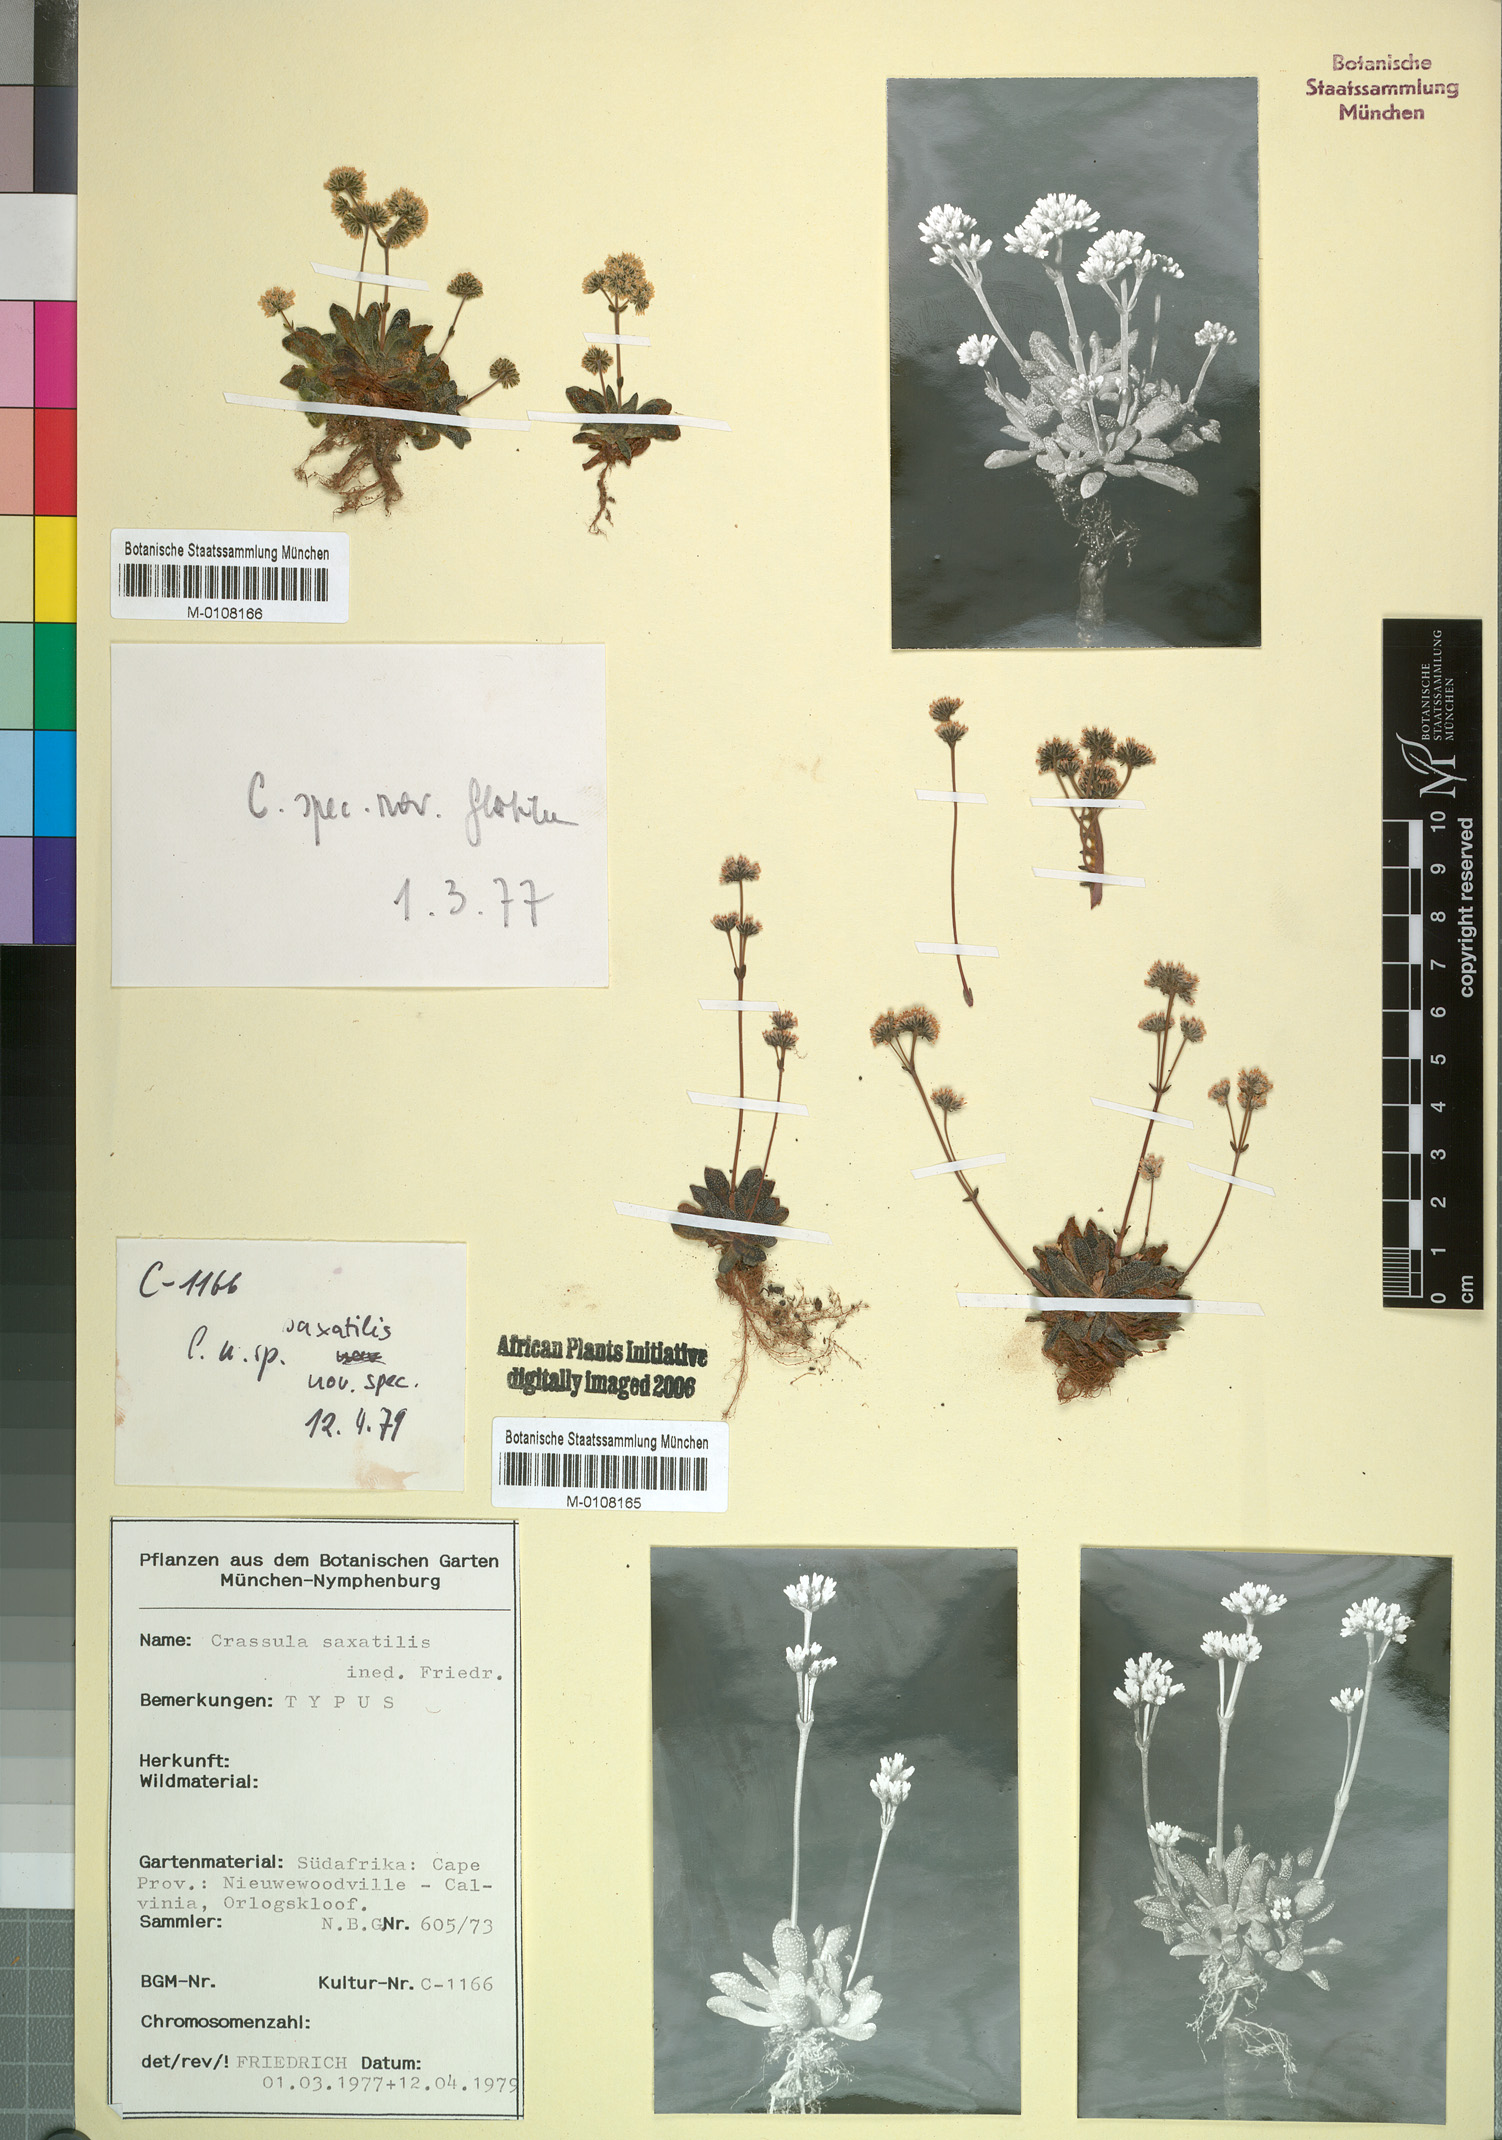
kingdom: Plantae
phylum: Tracheophyta
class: Magnoliopsida
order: Saxifragales
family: Crassulaceae
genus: Crassula
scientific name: Crassula
